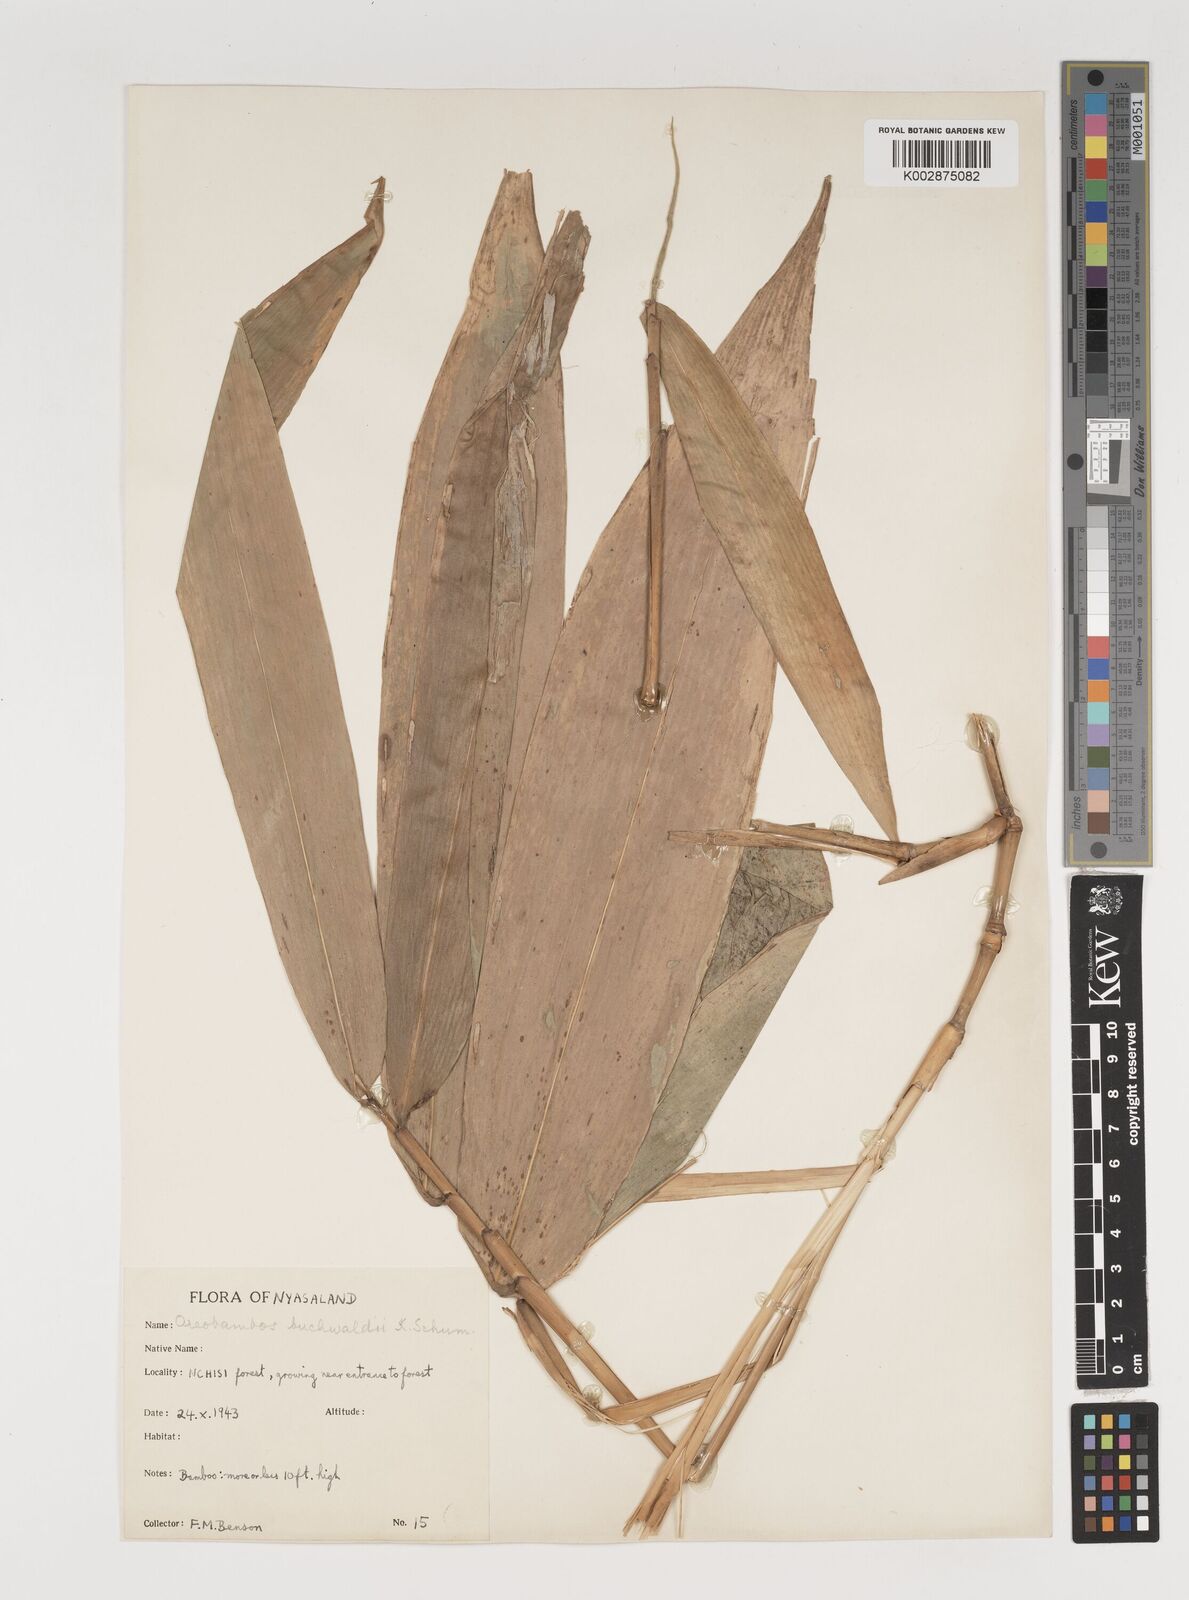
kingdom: Plantae
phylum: Tracheophyta
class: Liliopsida
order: Poales
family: Poaceae
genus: Oreobambos
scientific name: Oreobambos buchwaldii
